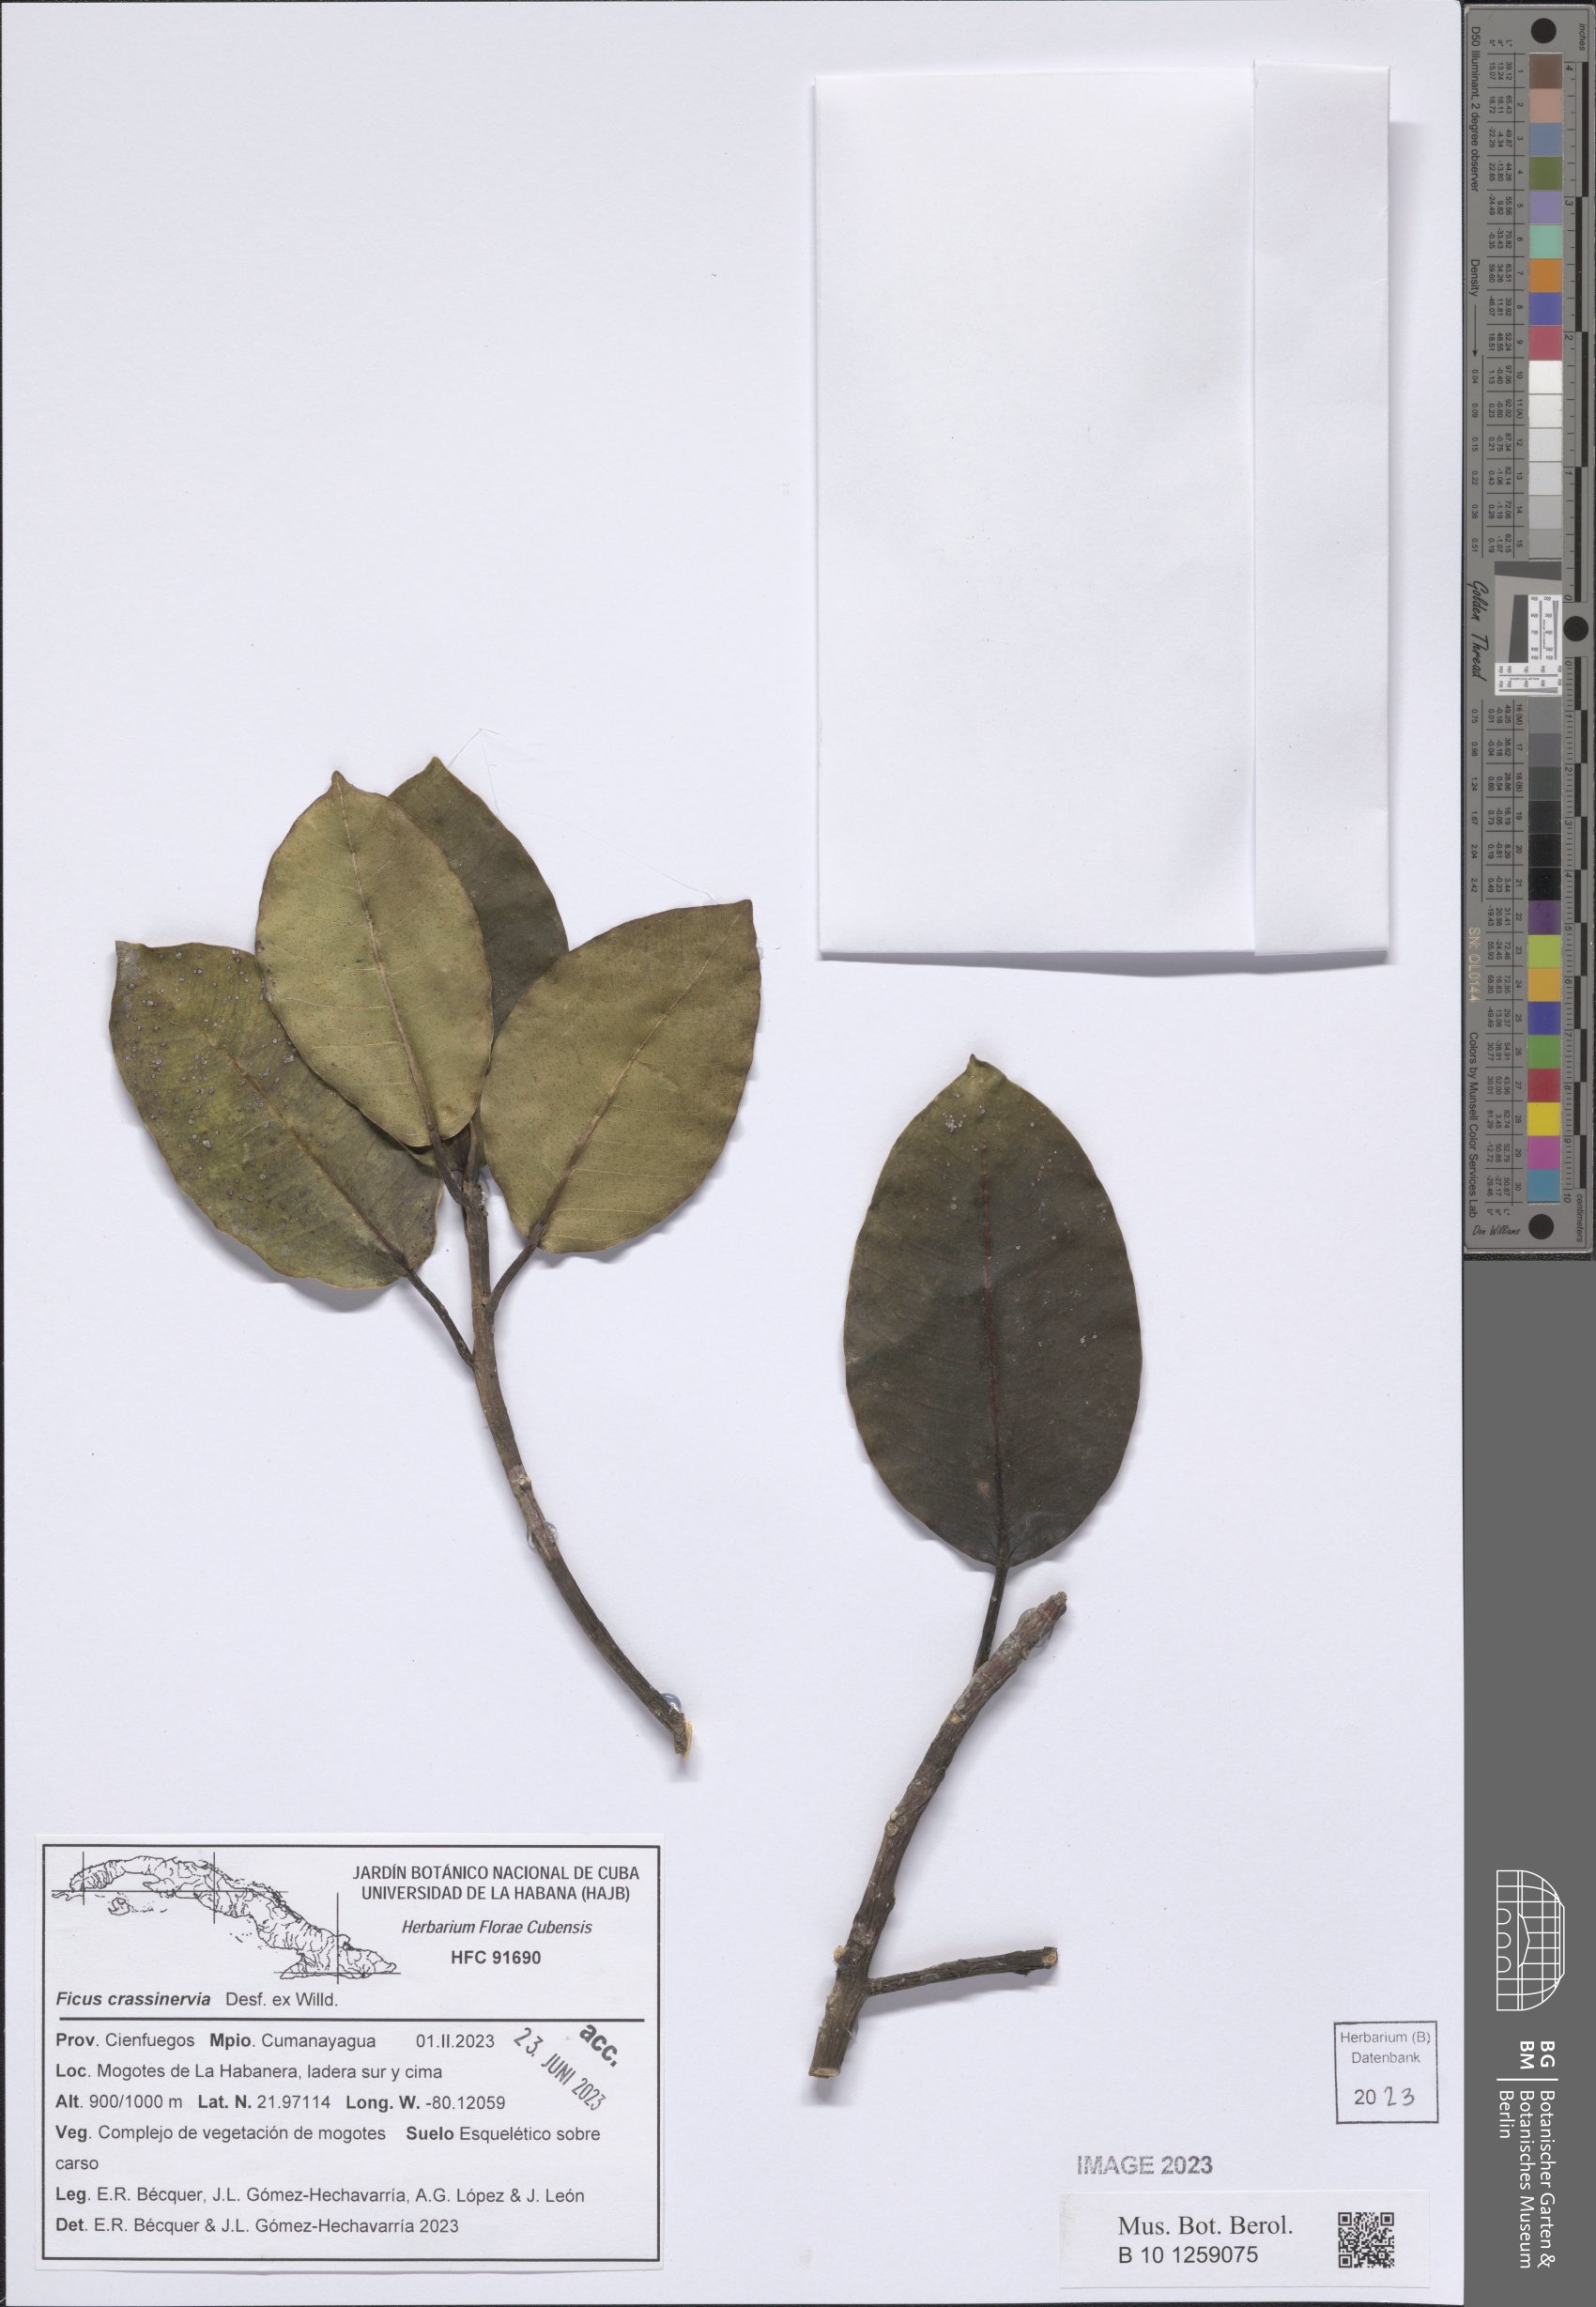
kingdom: Plantae
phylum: Tracheophyta
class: Magnoliopsida
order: Rosales
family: Moraceae
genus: Ficus
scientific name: Ficus crassinervia
